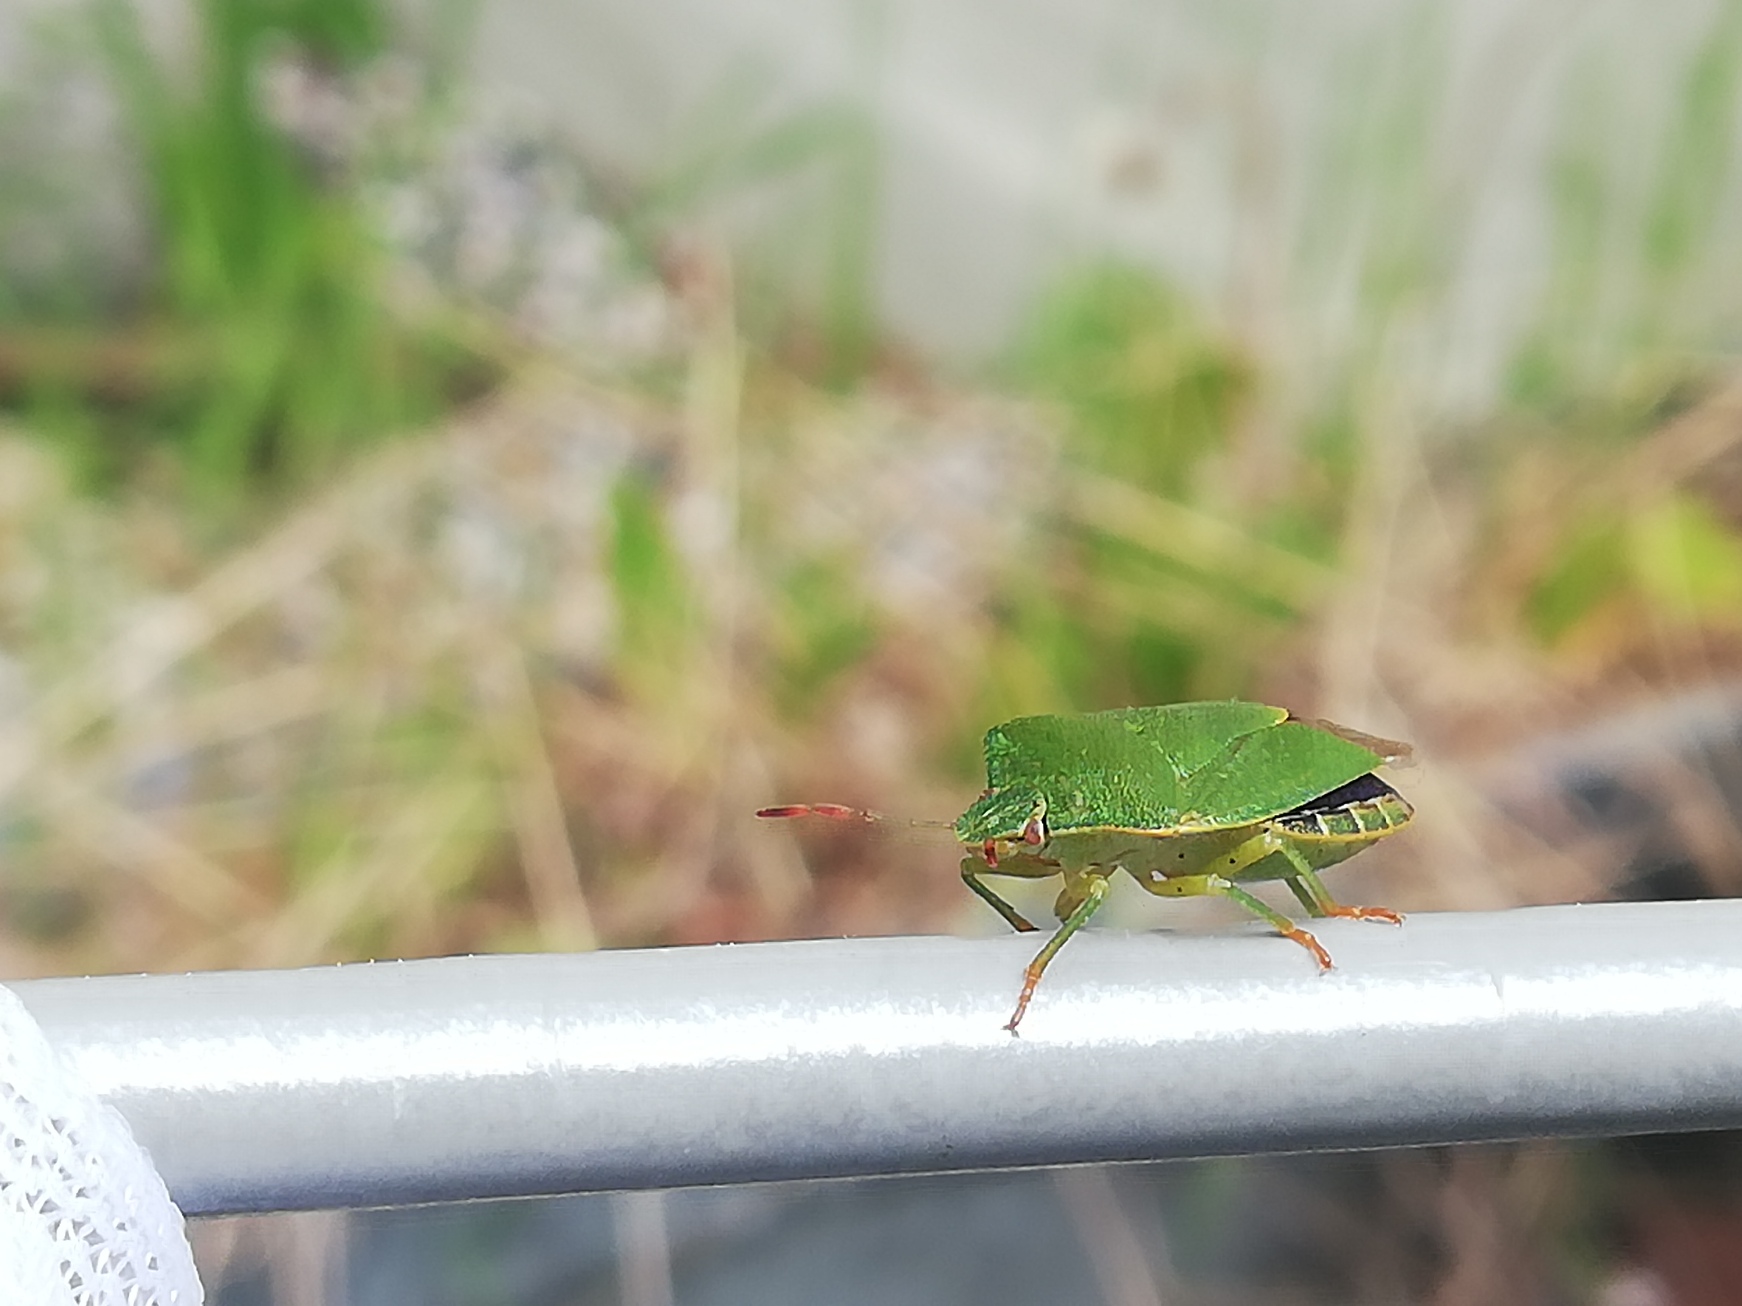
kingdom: Animalia
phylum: Arthropoda
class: Insecta
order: Hemiptera
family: Pentatomidae
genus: Palomena
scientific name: Palomena prasina
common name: Grøn bredtæge
